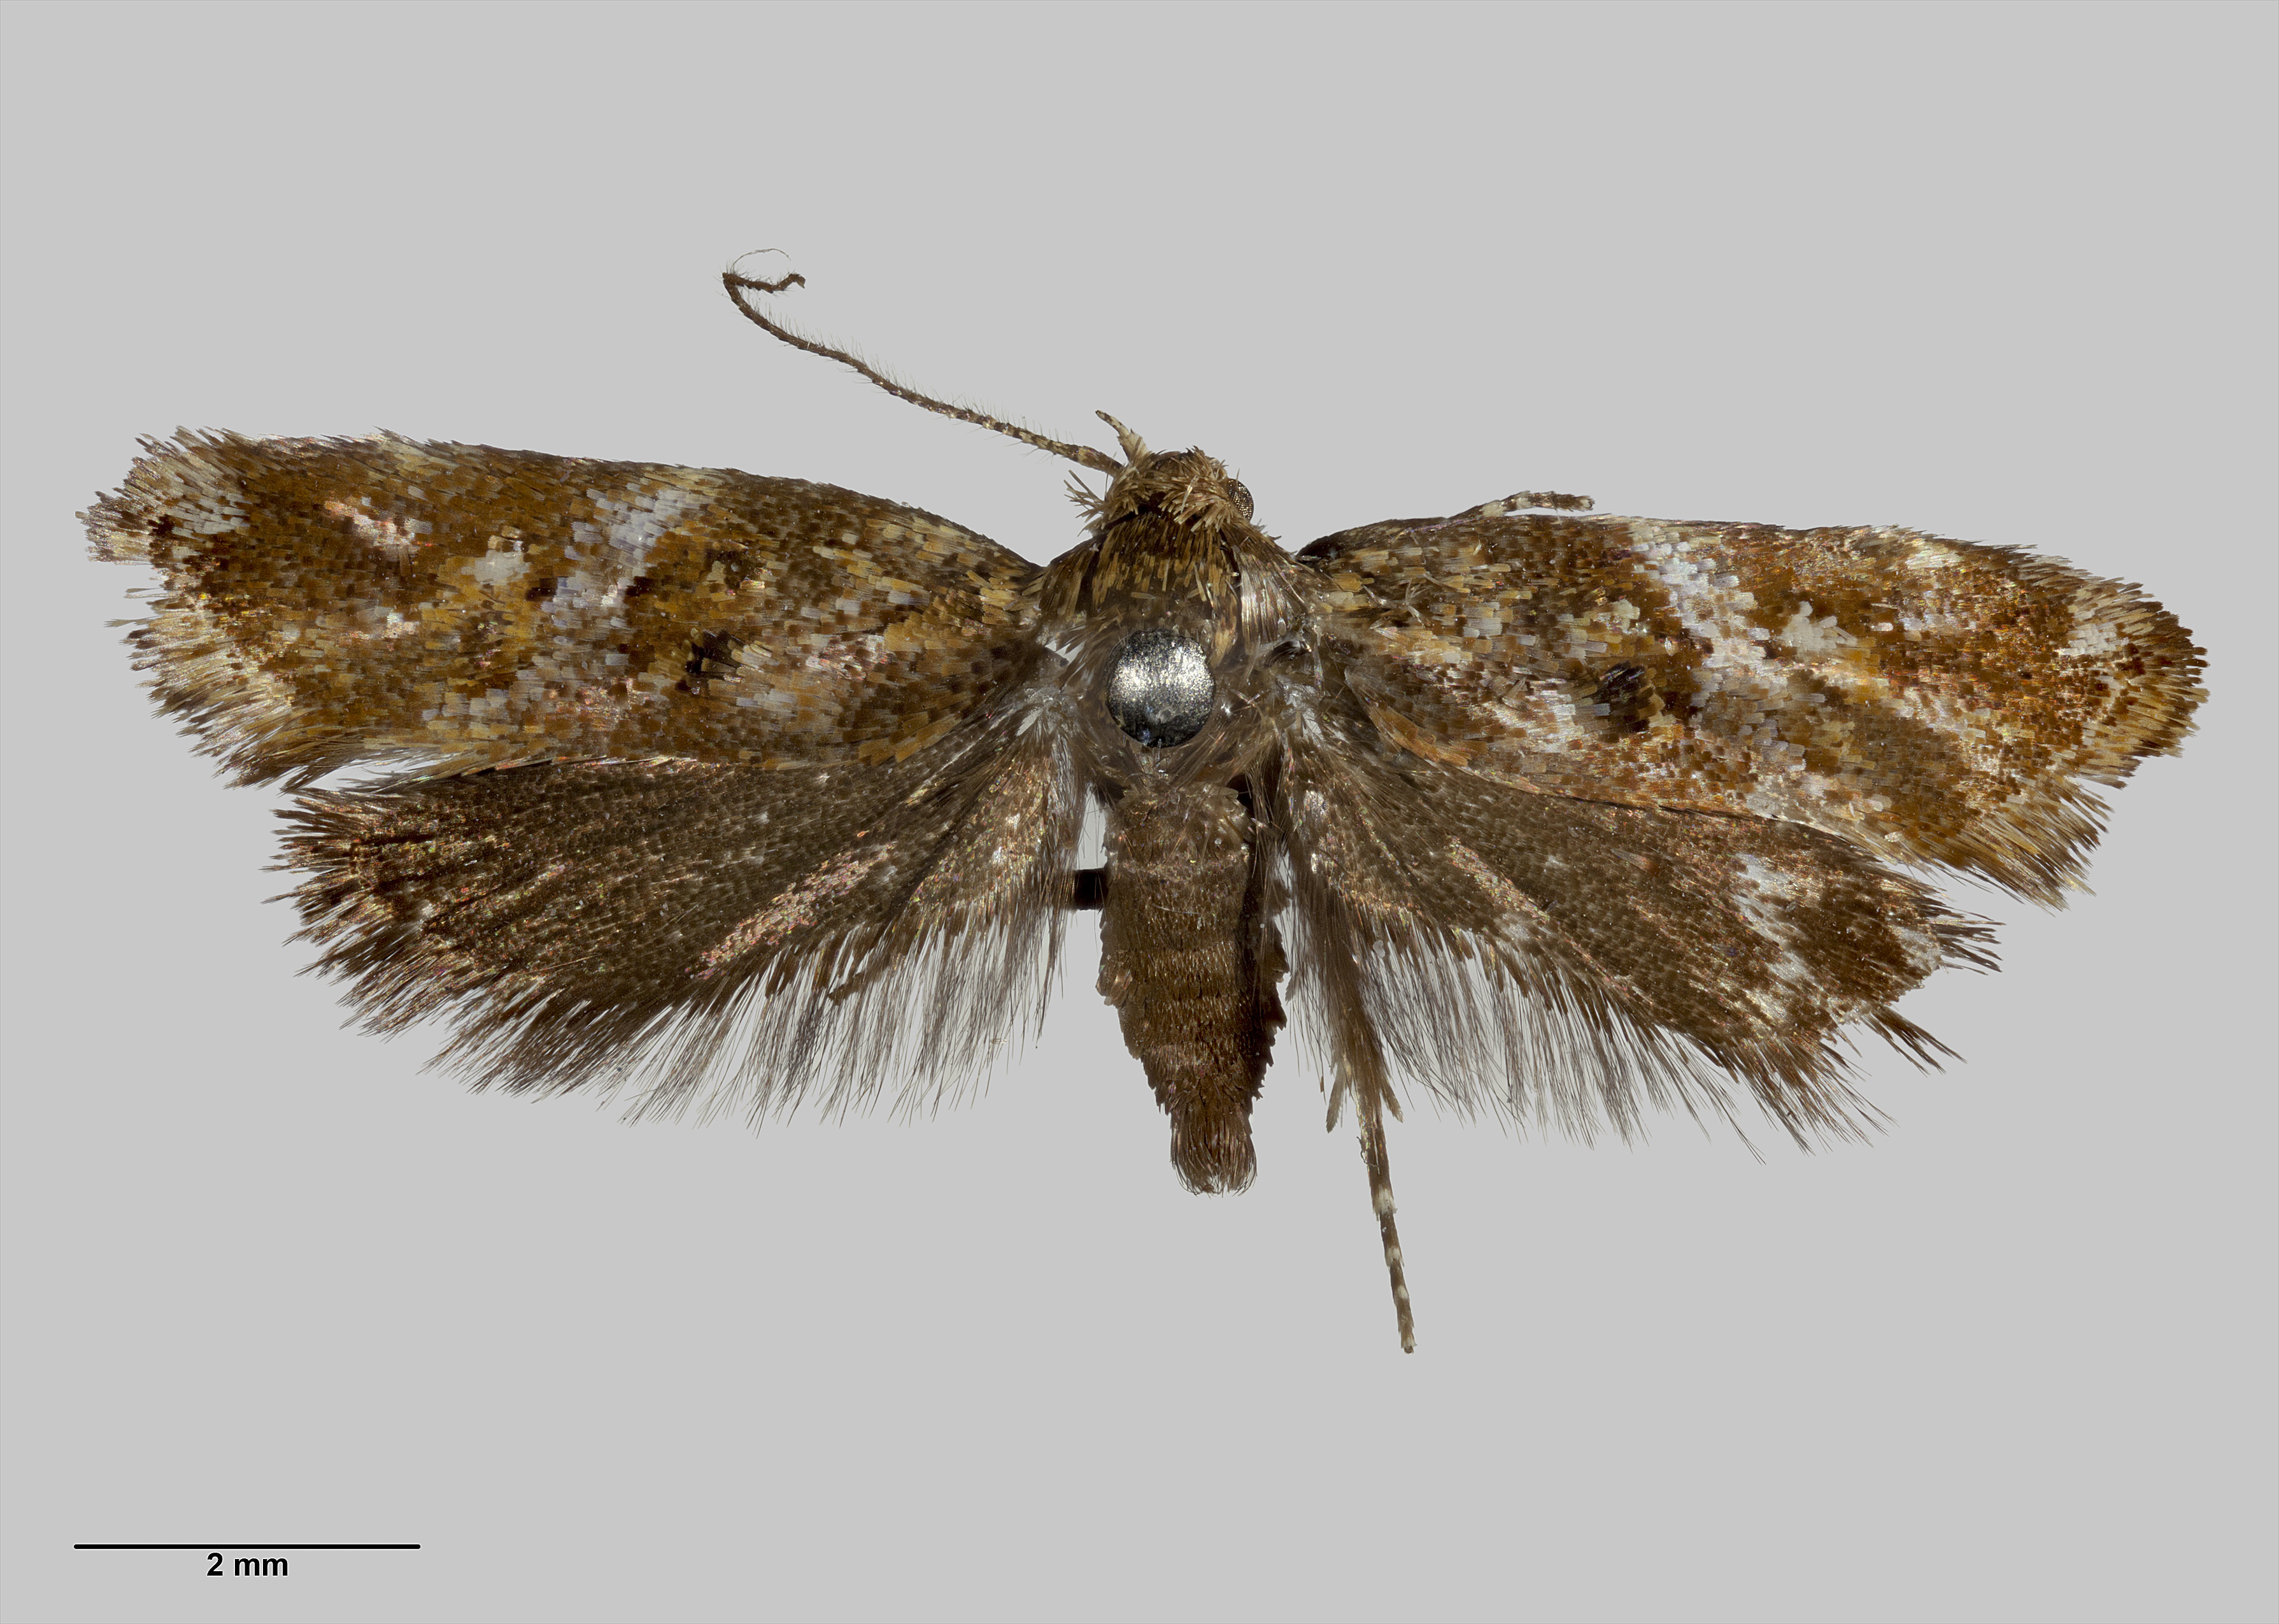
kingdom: Animalia
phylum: Arthropoda
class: Insecta
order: Lepidoptera
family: Oecophoridae
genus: Tingena
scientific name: Tingena eumenopa
